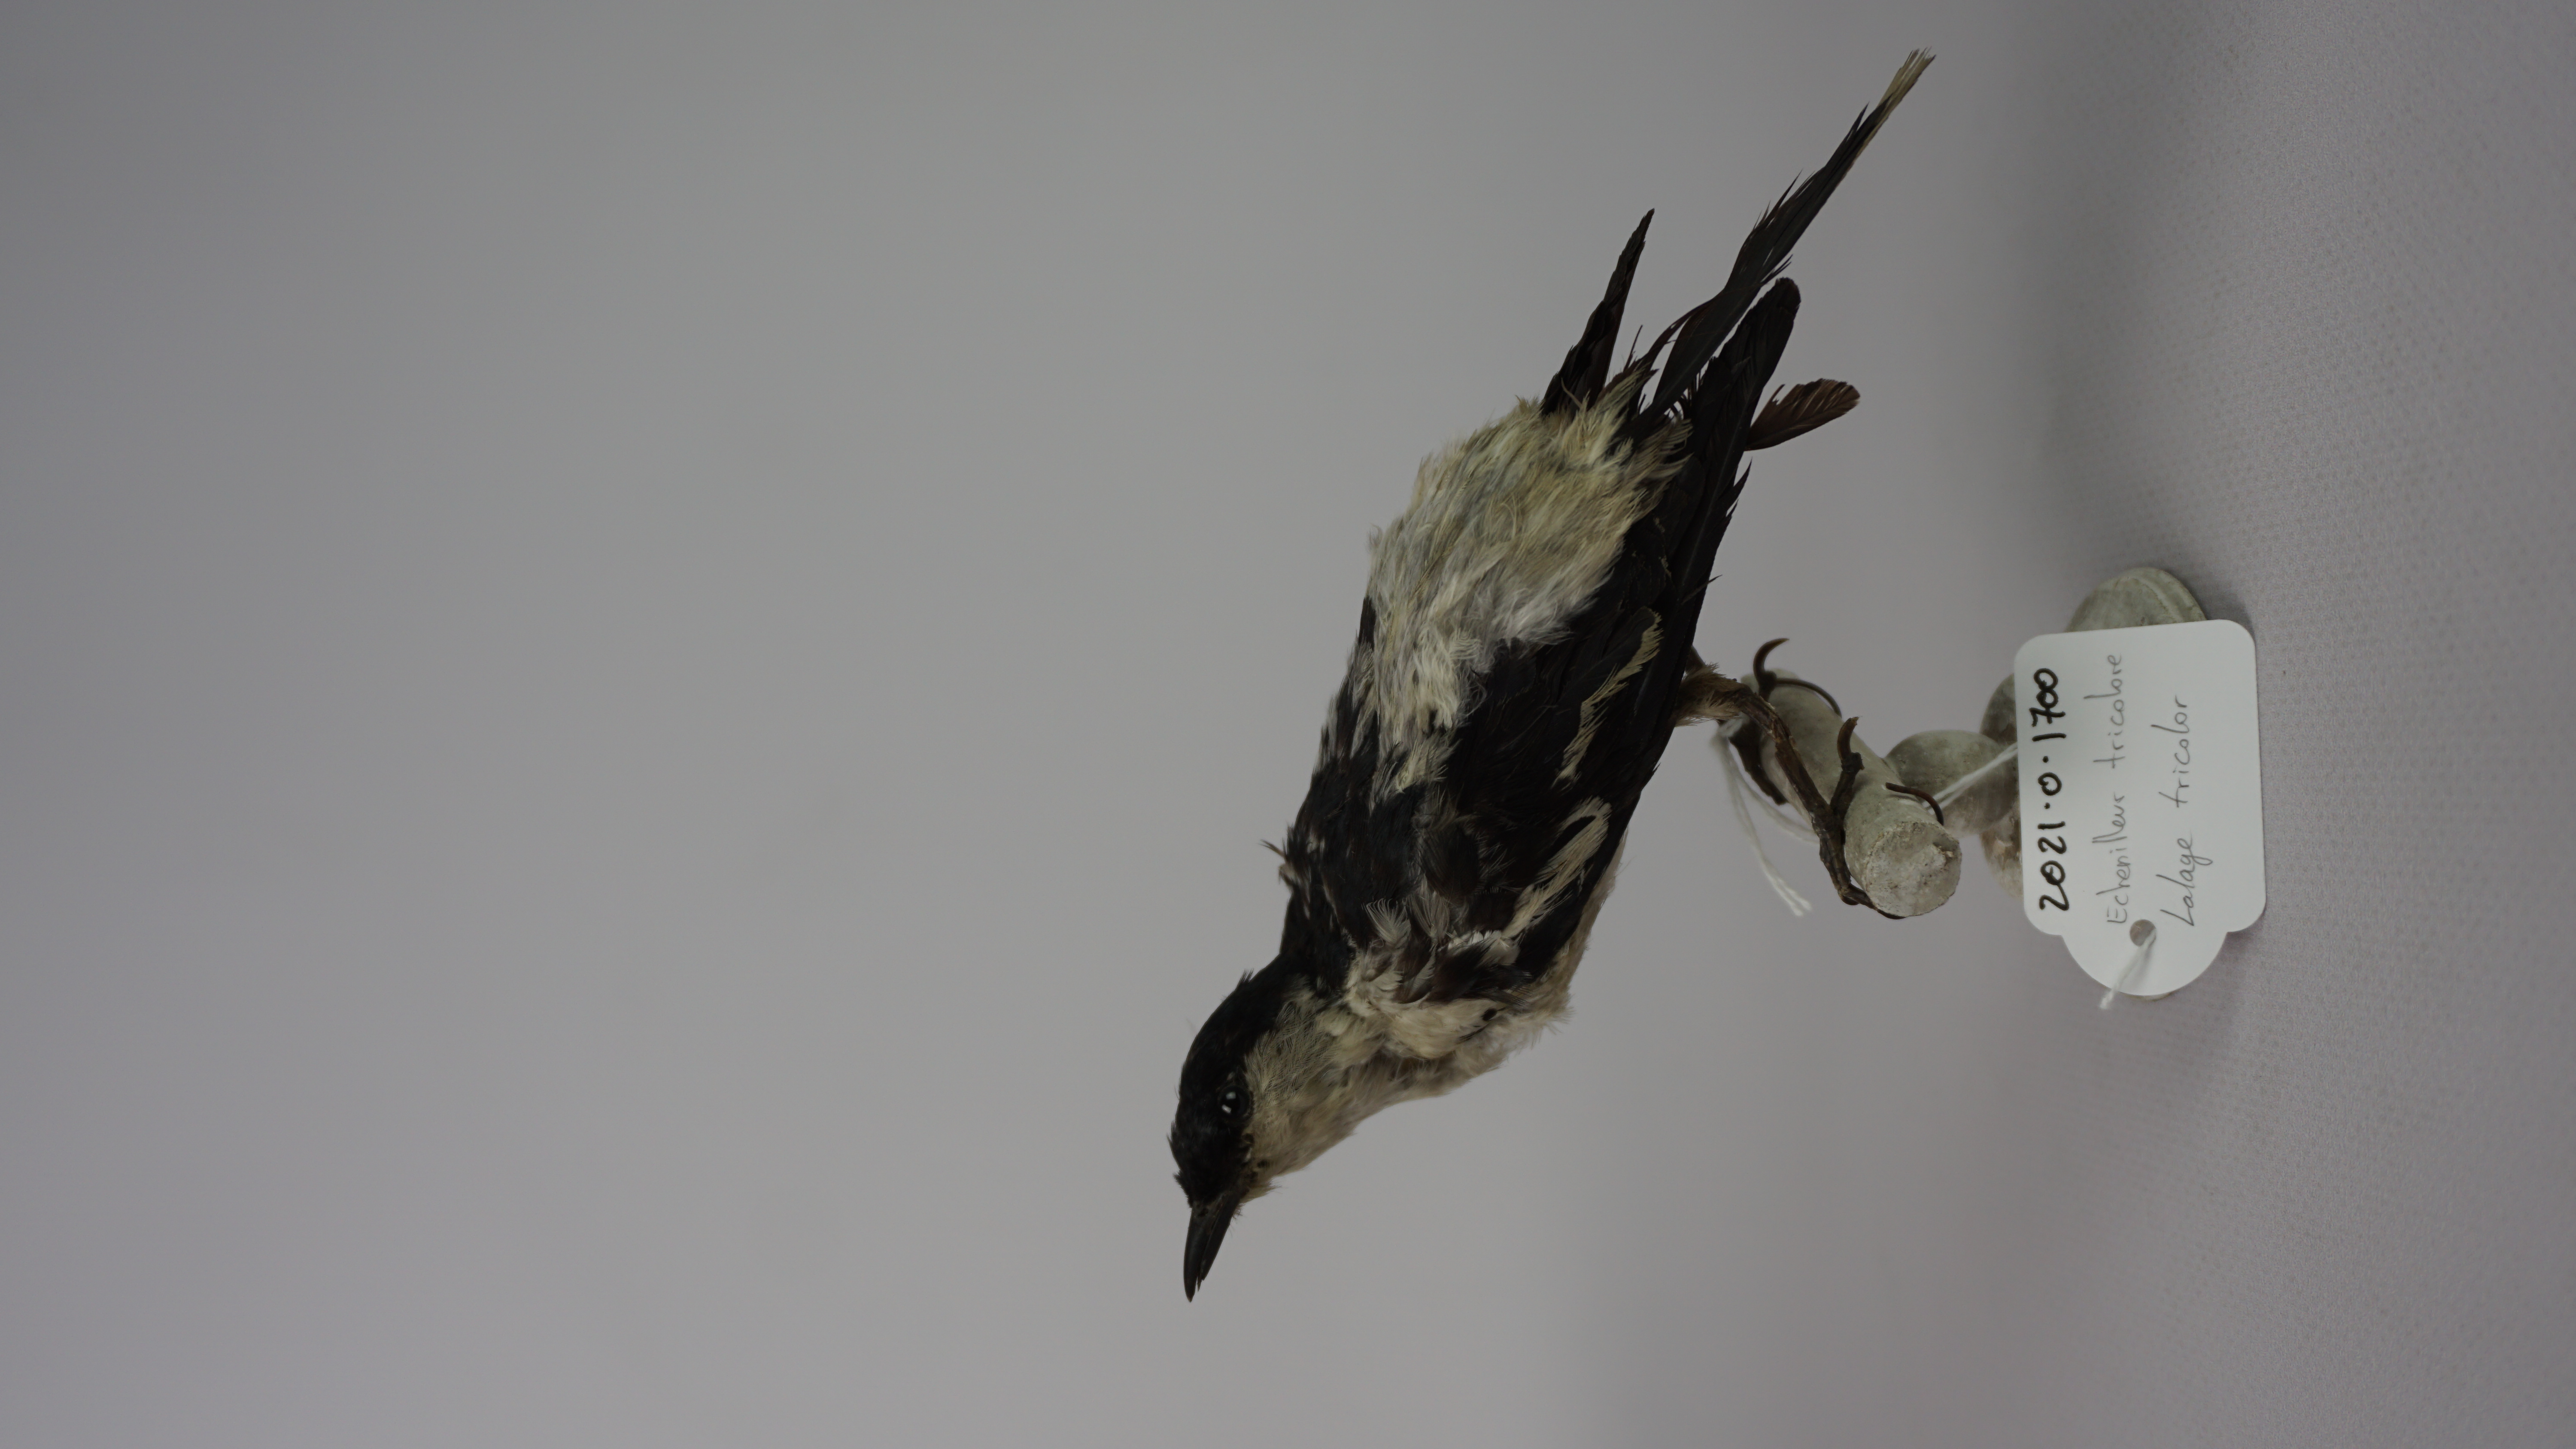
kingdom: Animalia
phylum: Chordata
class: Aves
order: Passeriformes
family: Campephagidae
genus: Lalage
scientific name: Lalage tricolor
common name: White-winged triller
